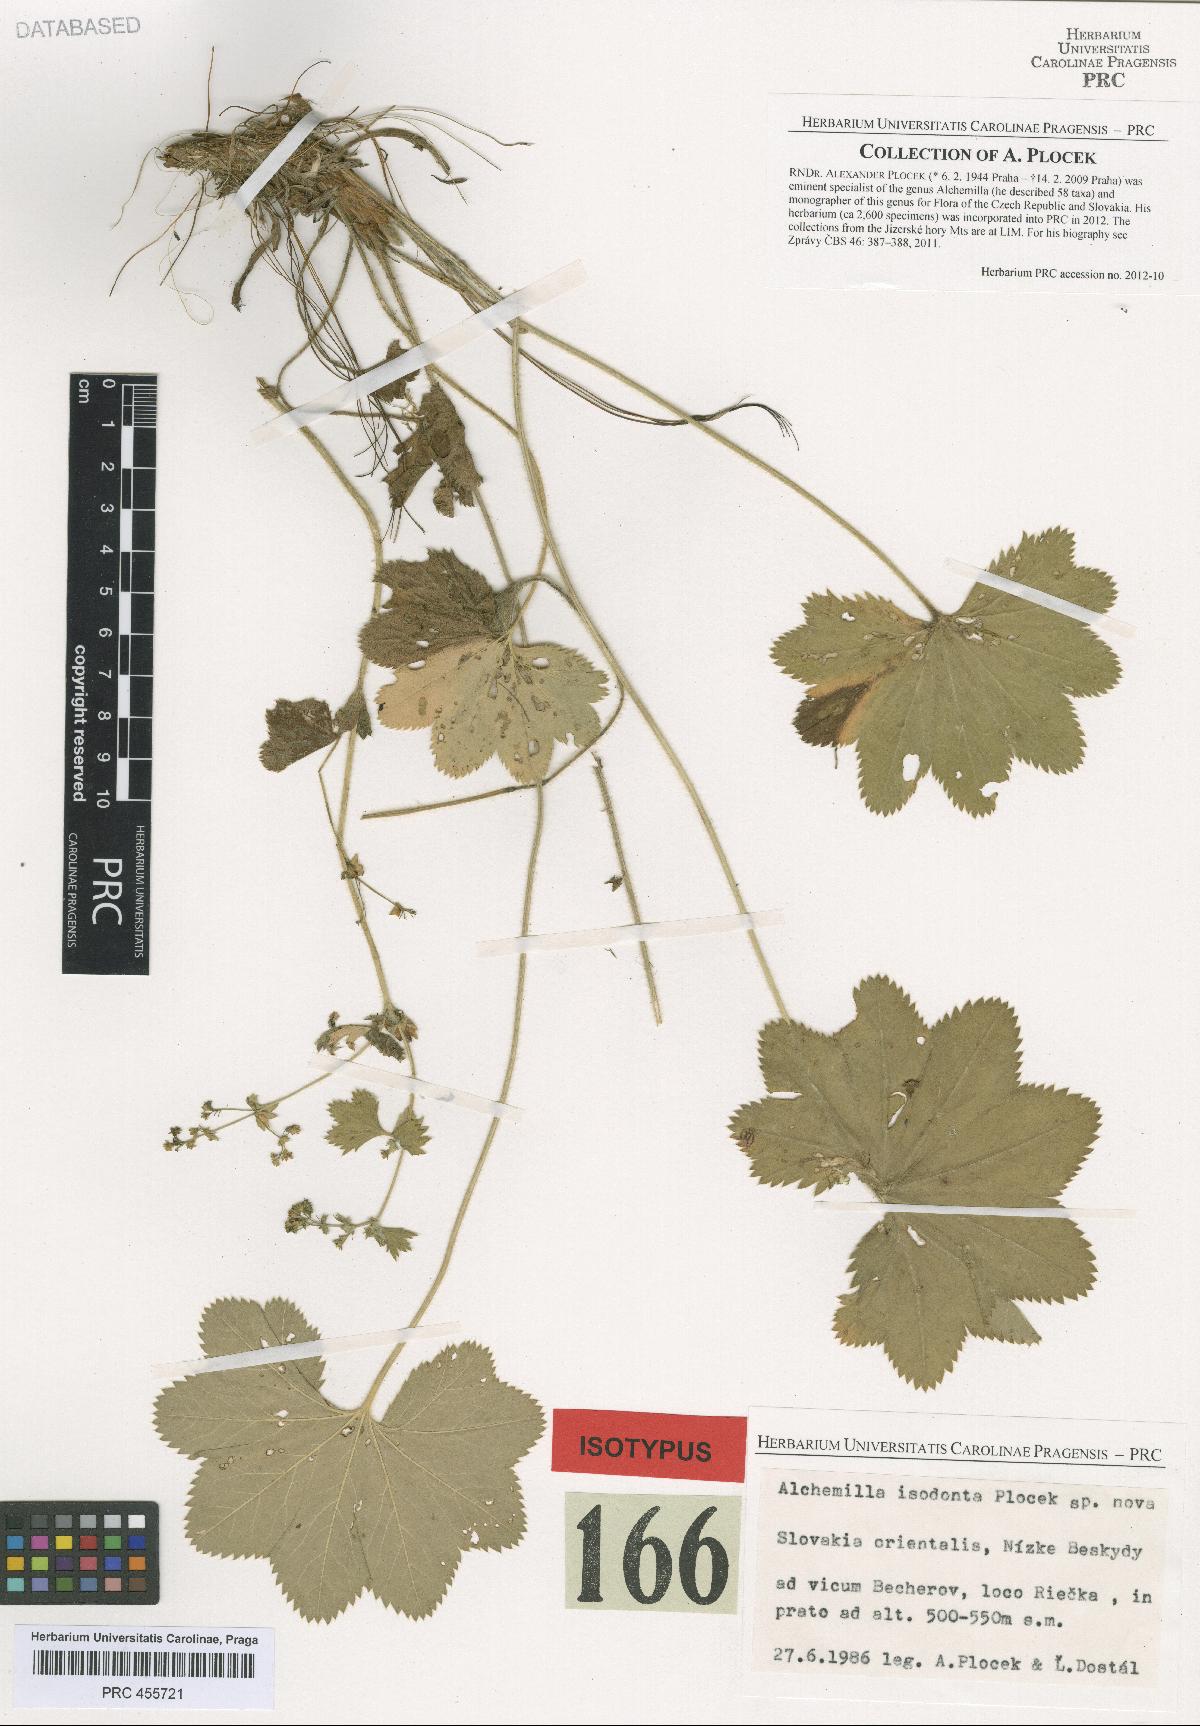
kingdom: Plantae
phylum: Tracheophyta
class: Magnoliopsida
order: Rosales
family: Rosaceae
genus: Alchemilla
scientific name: Alchemilla isodonta
